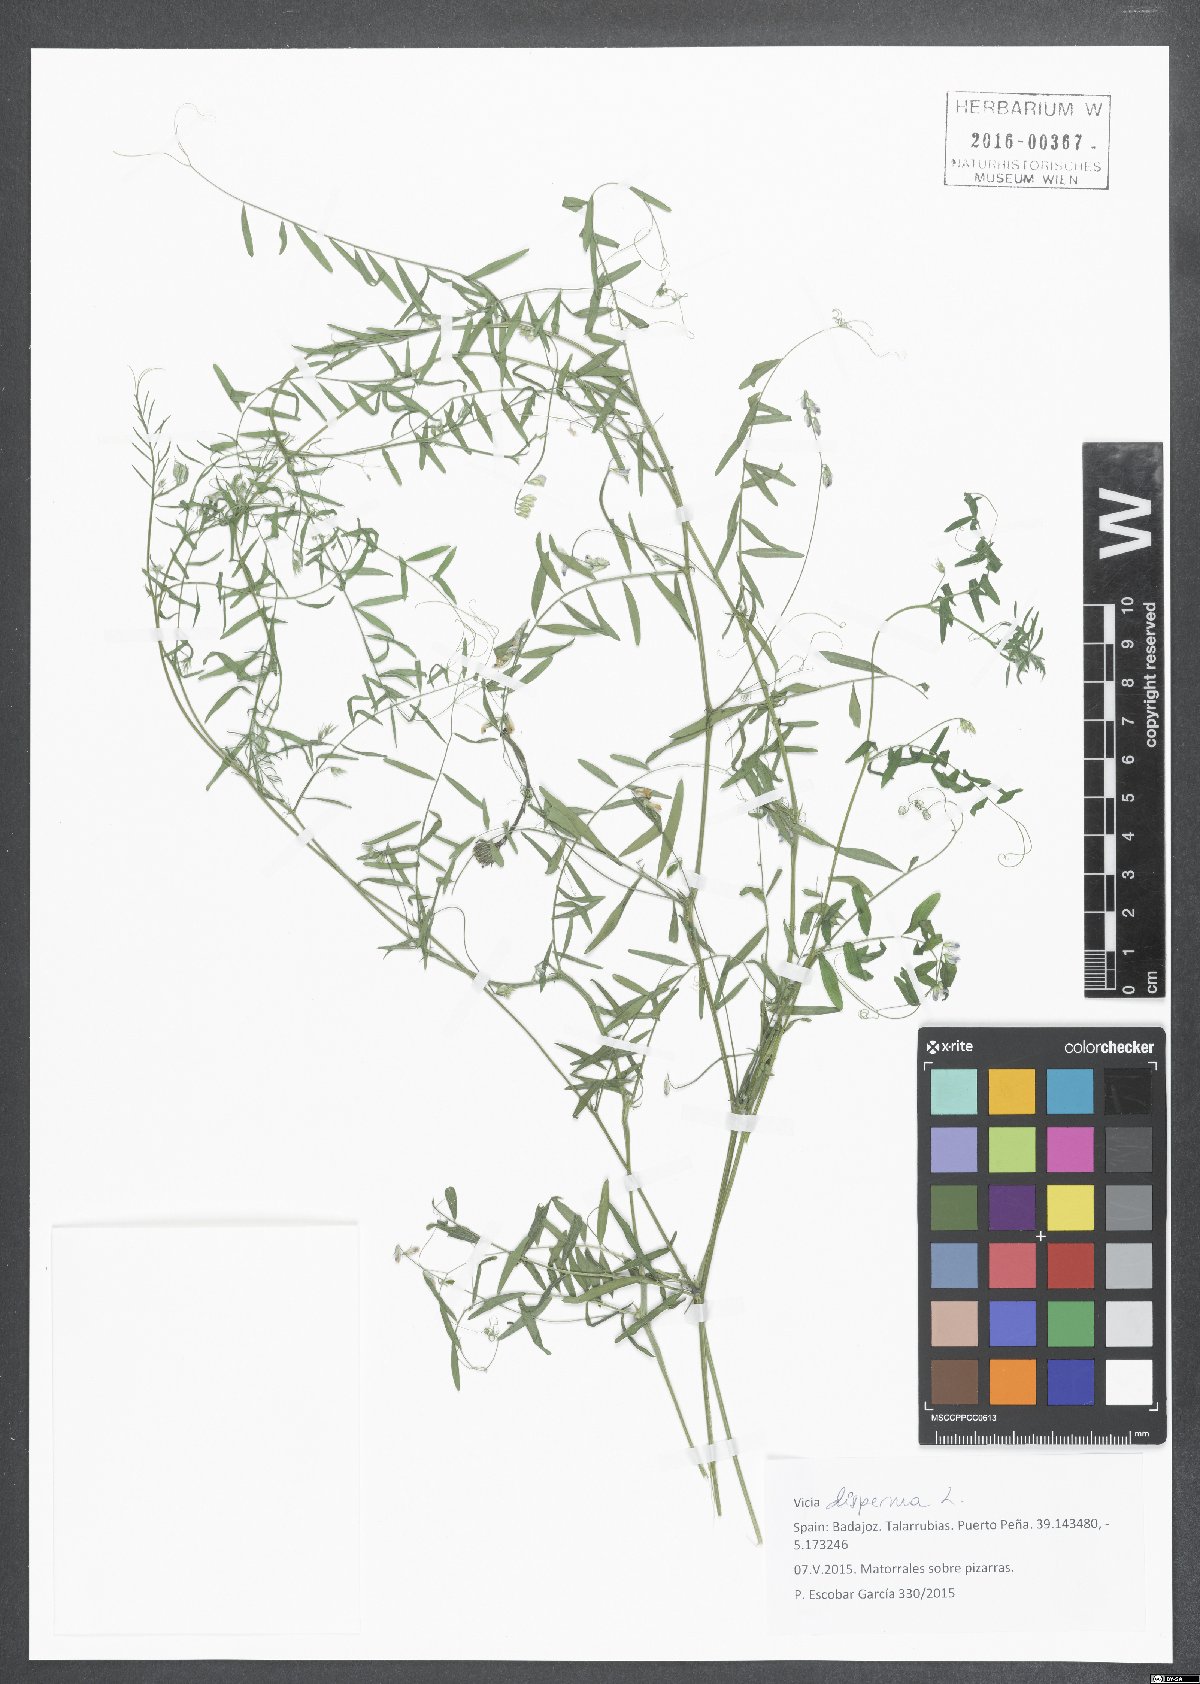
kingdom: Plantae
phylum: Tracheophyta
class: Magnoliopsida
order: Fabales
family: Fabaceae
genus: Vicia
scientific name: Vicia disperma
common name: European vetch
